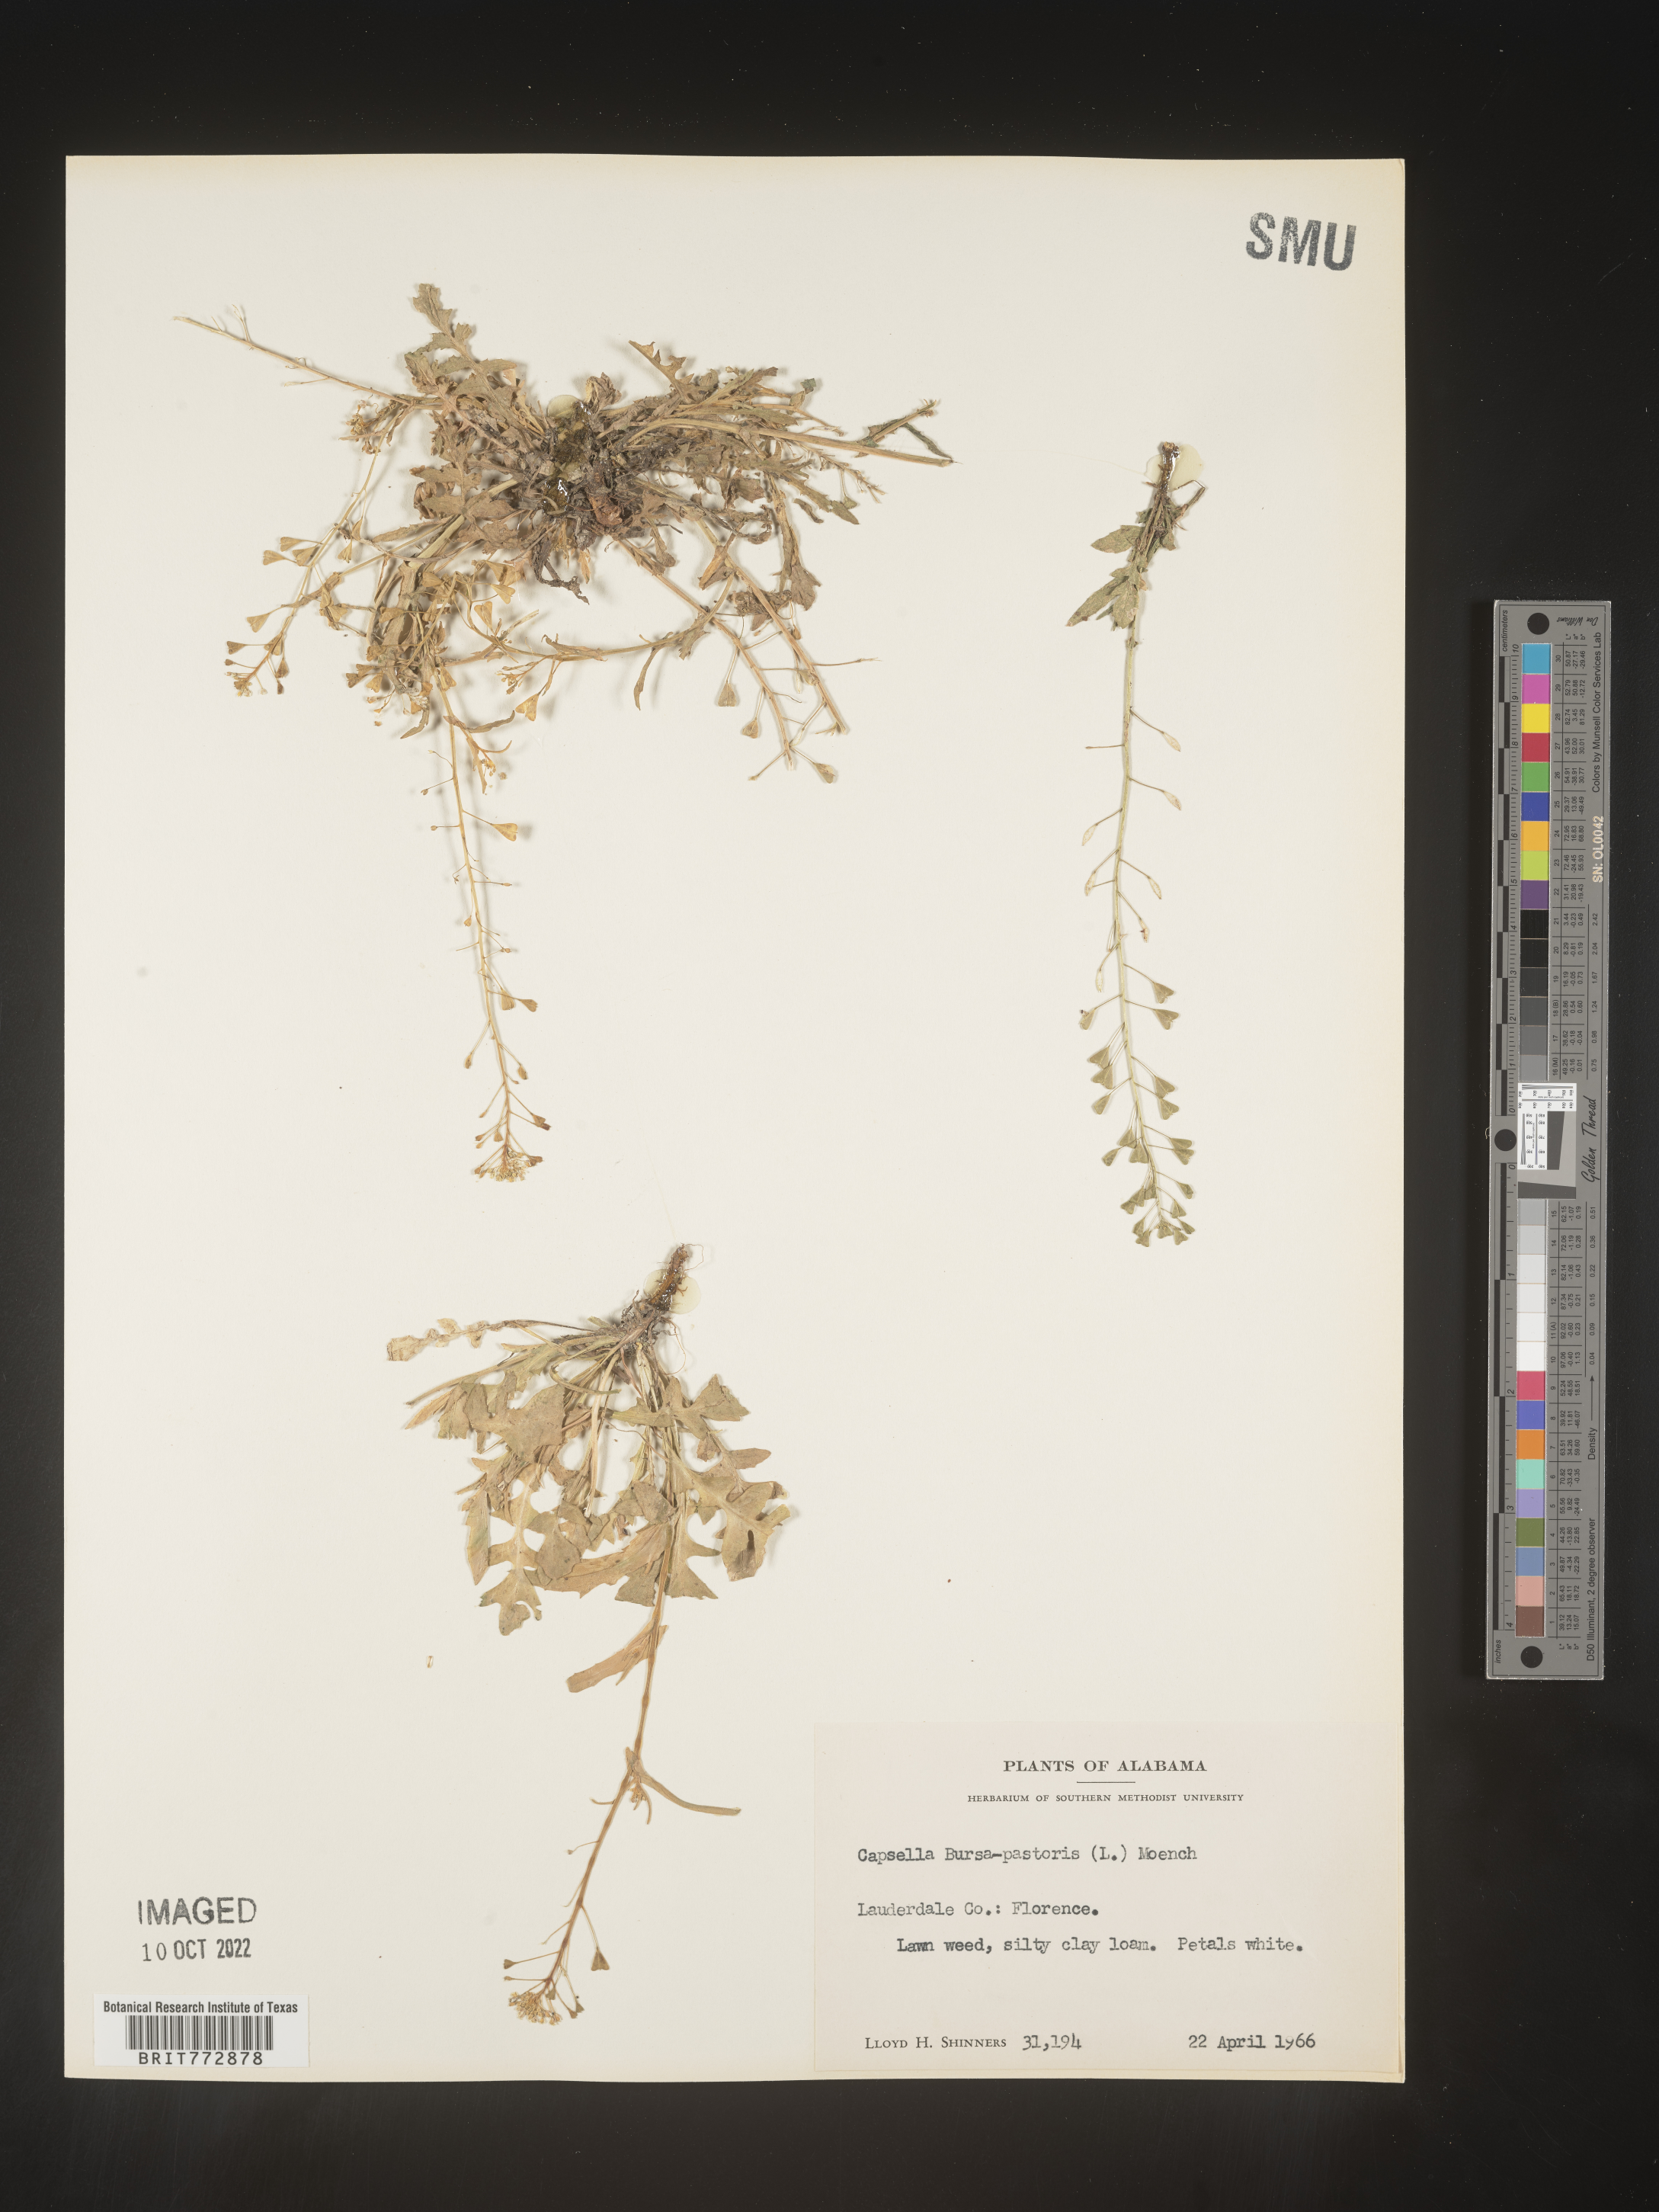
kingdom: Plantae
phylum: Tracheophyta
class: Magnoliopsida
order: Brassicales
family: Brassicaceae
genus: Capsella
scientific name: Capsella bursa-pastoris
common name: Shepherd's purse
